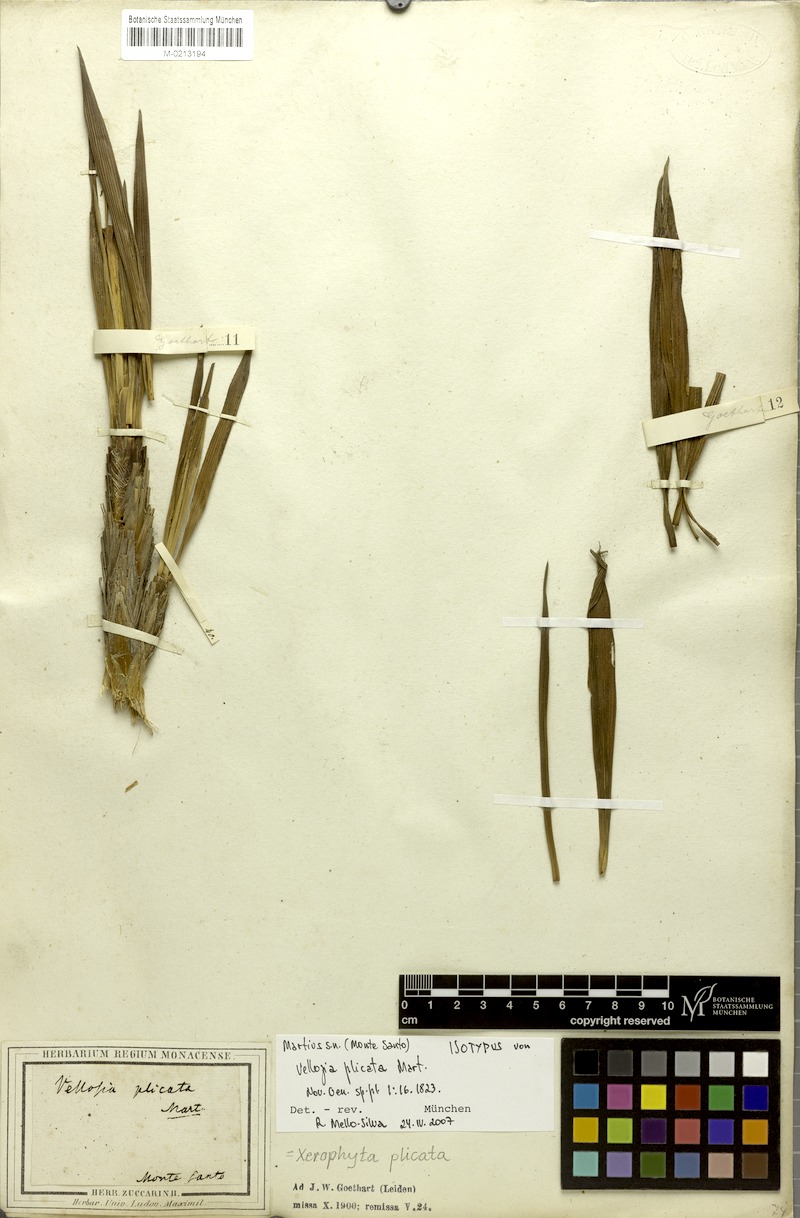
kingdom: Plantae
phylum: Tracheophyta
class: Liliopsida
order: Pandanales
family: Velloziaceae
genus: Nanuza
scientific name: Nanuza plicata
